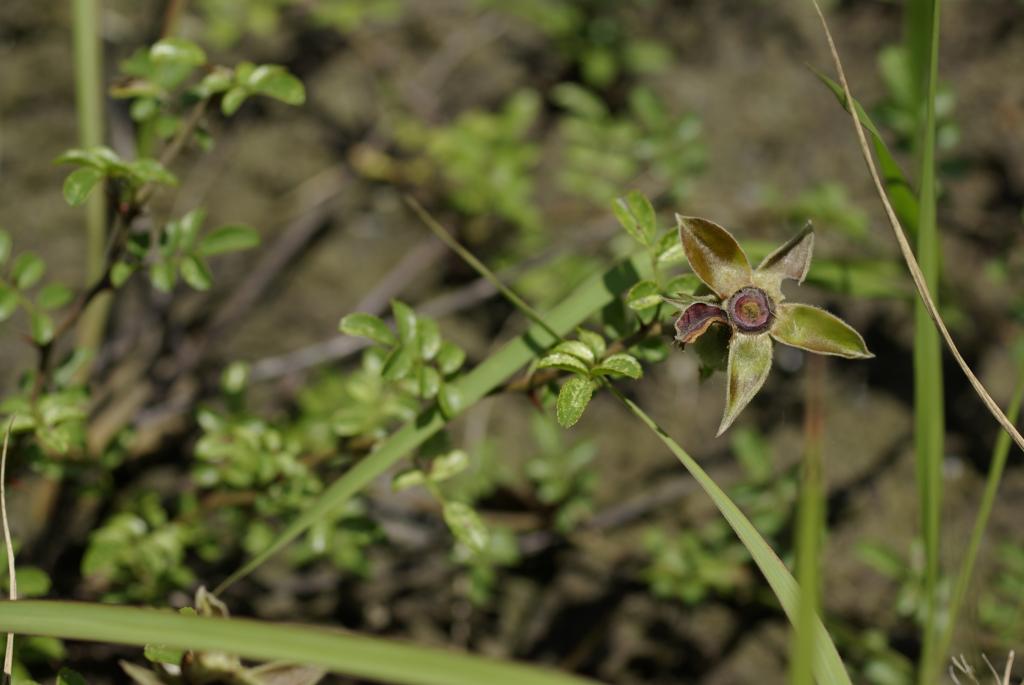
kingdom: Plantae
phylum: Tracheophyta
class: Magnoliopsida
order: Rosales
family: Rosaceae
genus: Rosa
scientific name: Rosa bracteata
